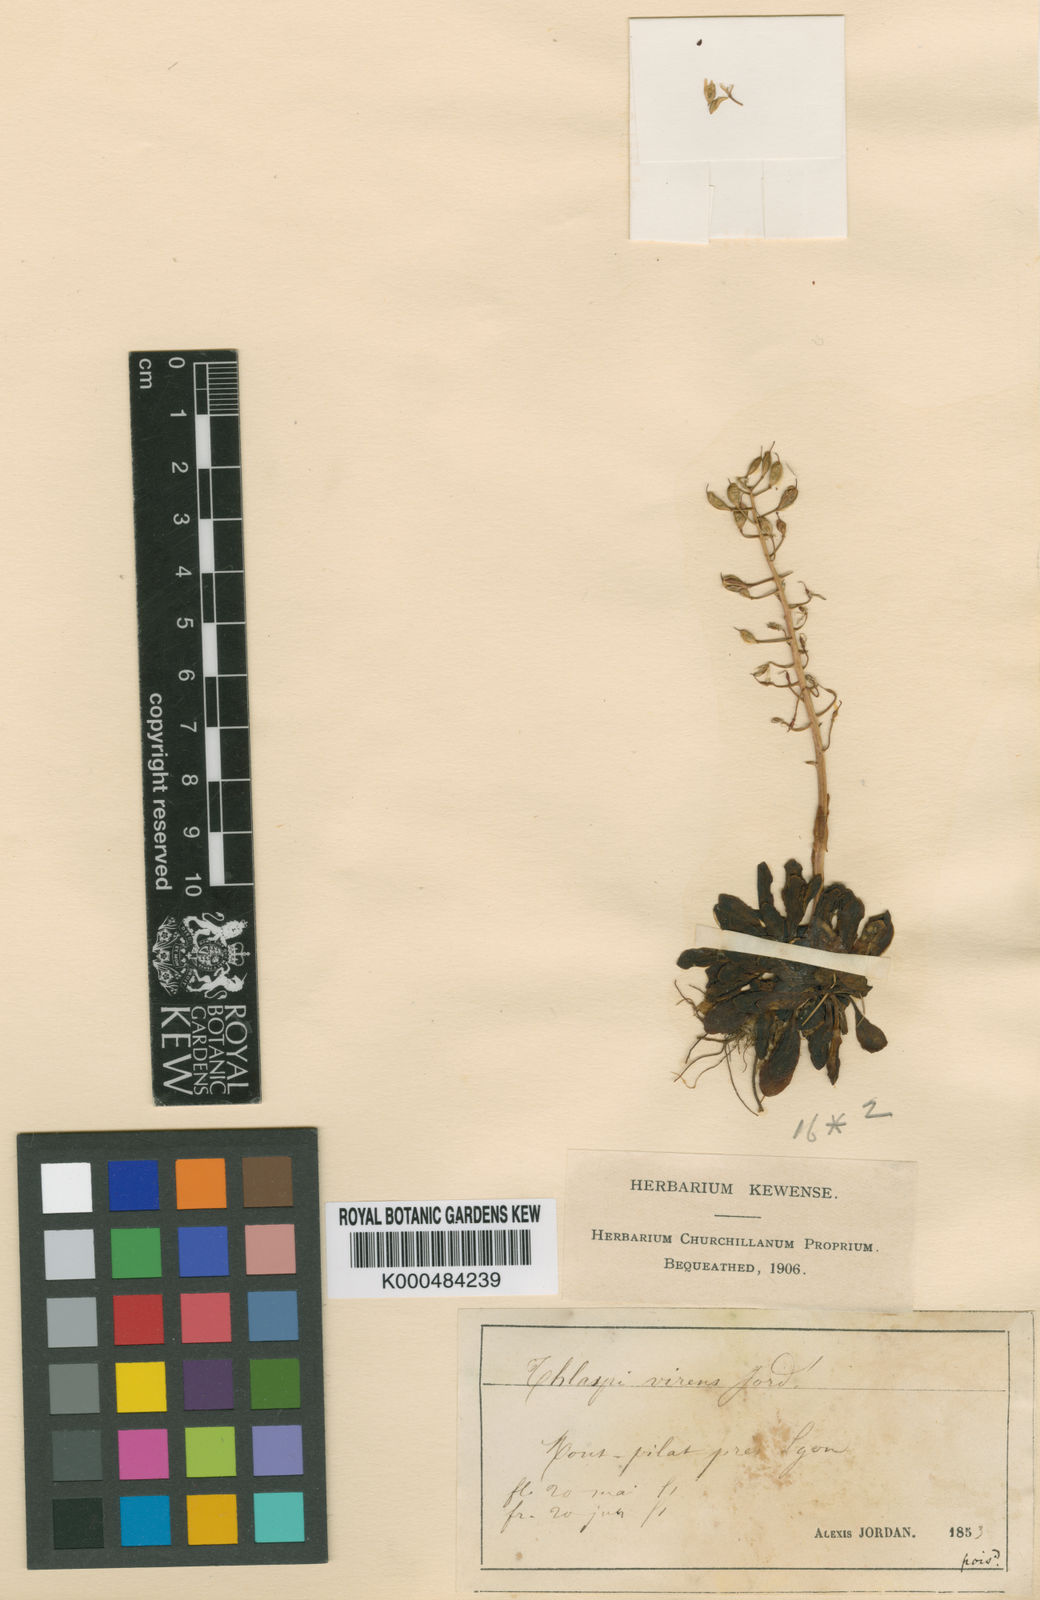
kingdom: Plantae
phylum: Tracheophyta
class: Magnoliopsida
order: Brassicales
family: Brassicaceae
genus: Thlaspi
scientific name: Thlaspi
